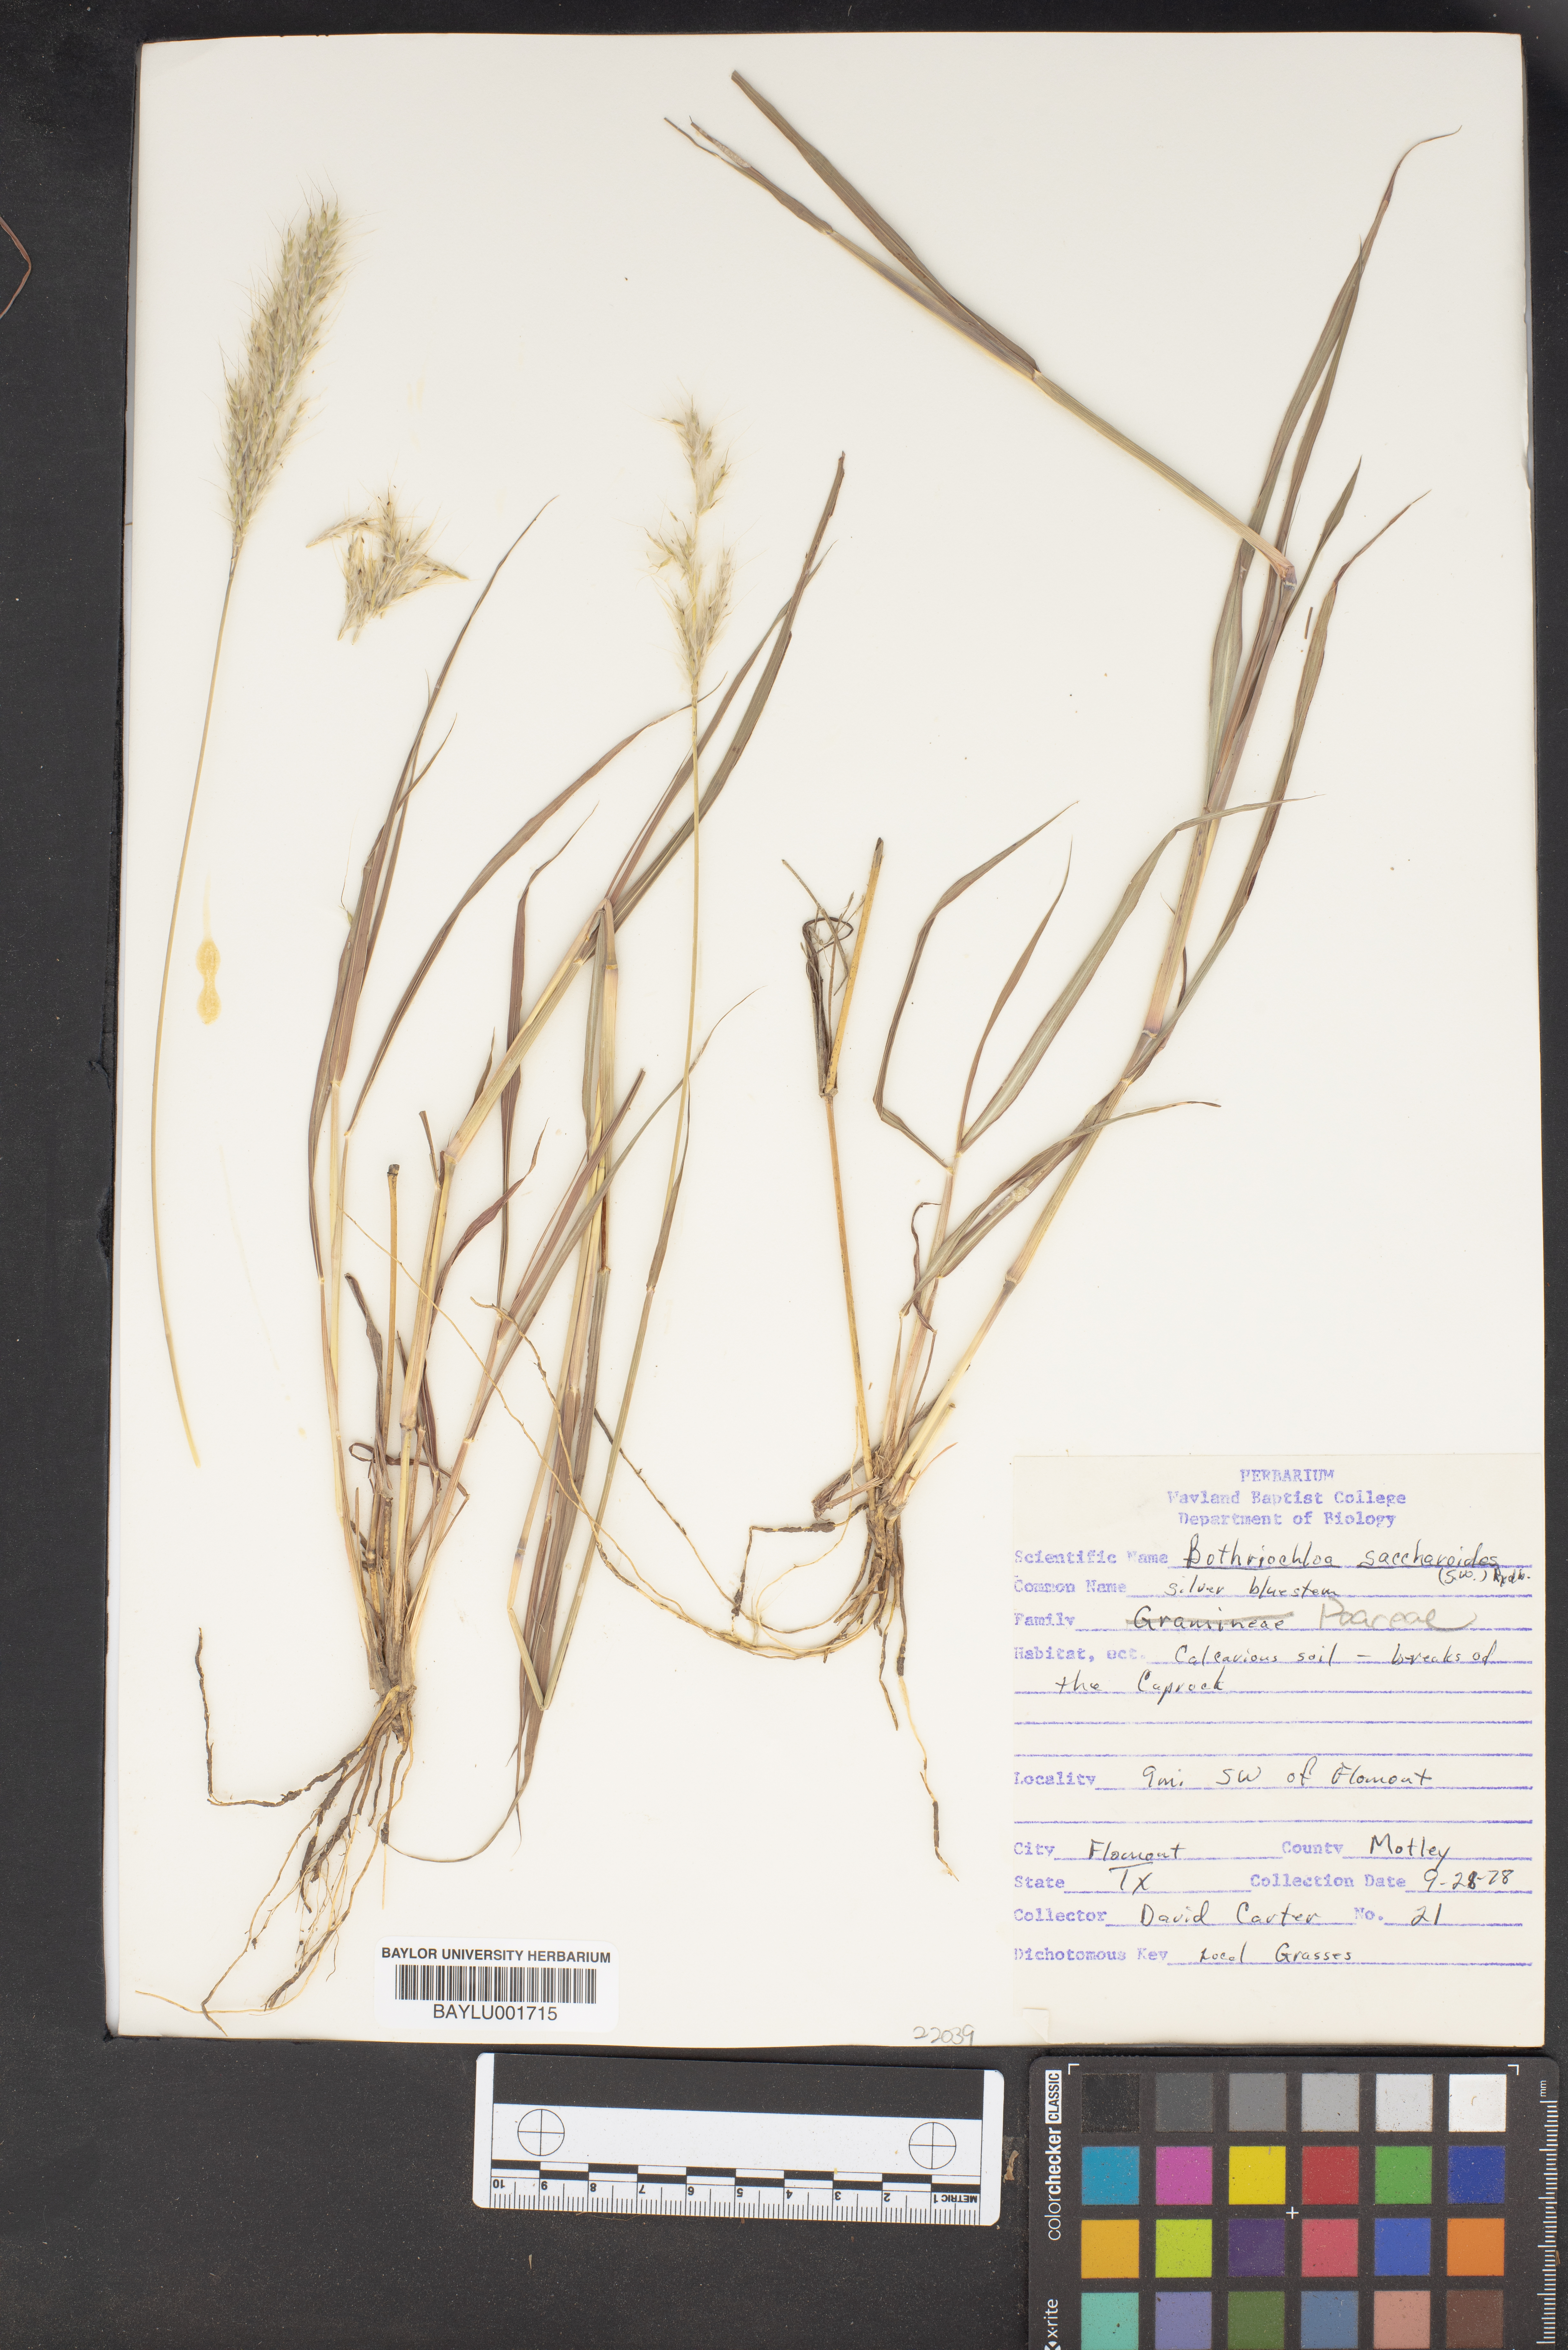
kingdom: Plantae
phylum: Tracheophyta
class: Liliopsida
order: Poales
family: Poaceae
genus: Bothriochloa
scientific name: Bothriochloa saccharoides
